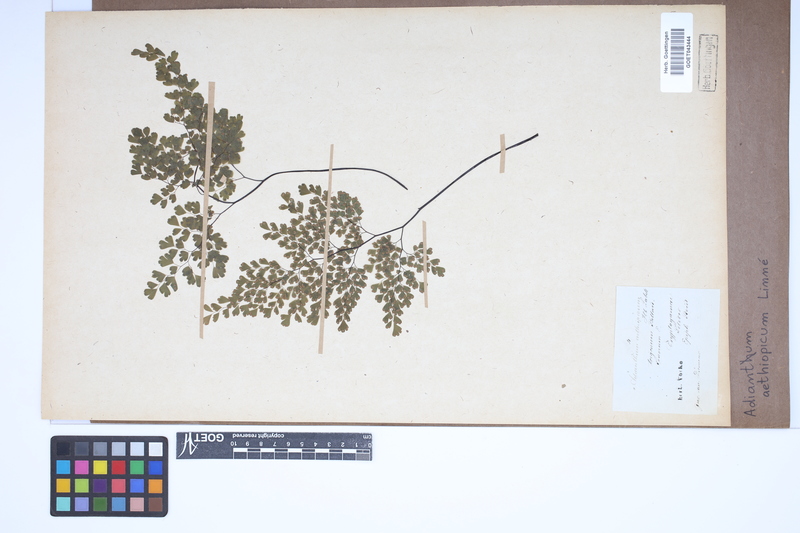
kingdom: Plantae
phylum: Tracheophyta
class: Polypodiopsida
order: Polypodiales
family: Pteridaceae
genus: Adiantum
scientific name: Adiantum aethiopicum
